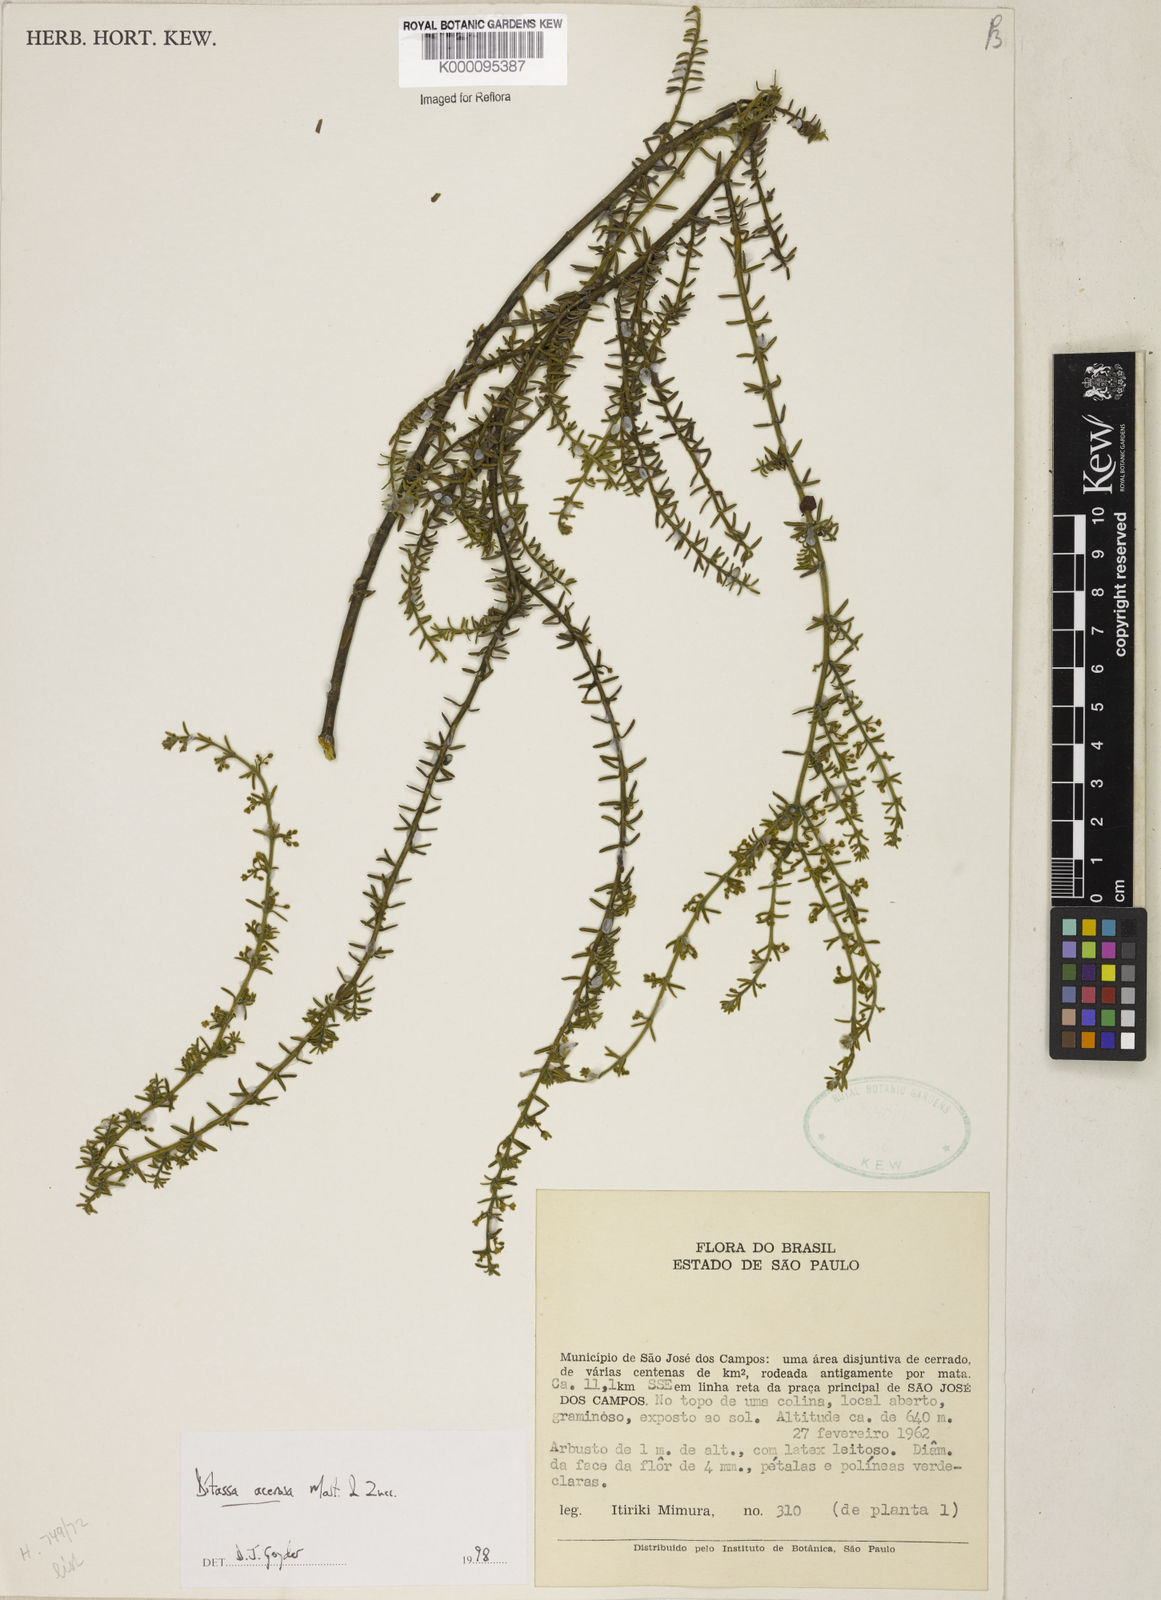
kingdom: Plantae
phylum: Tracheophyta
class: Magnoliopsida
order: Gentianales
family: Apocynaceae
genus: Minaria
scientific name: Minaria acerosa
